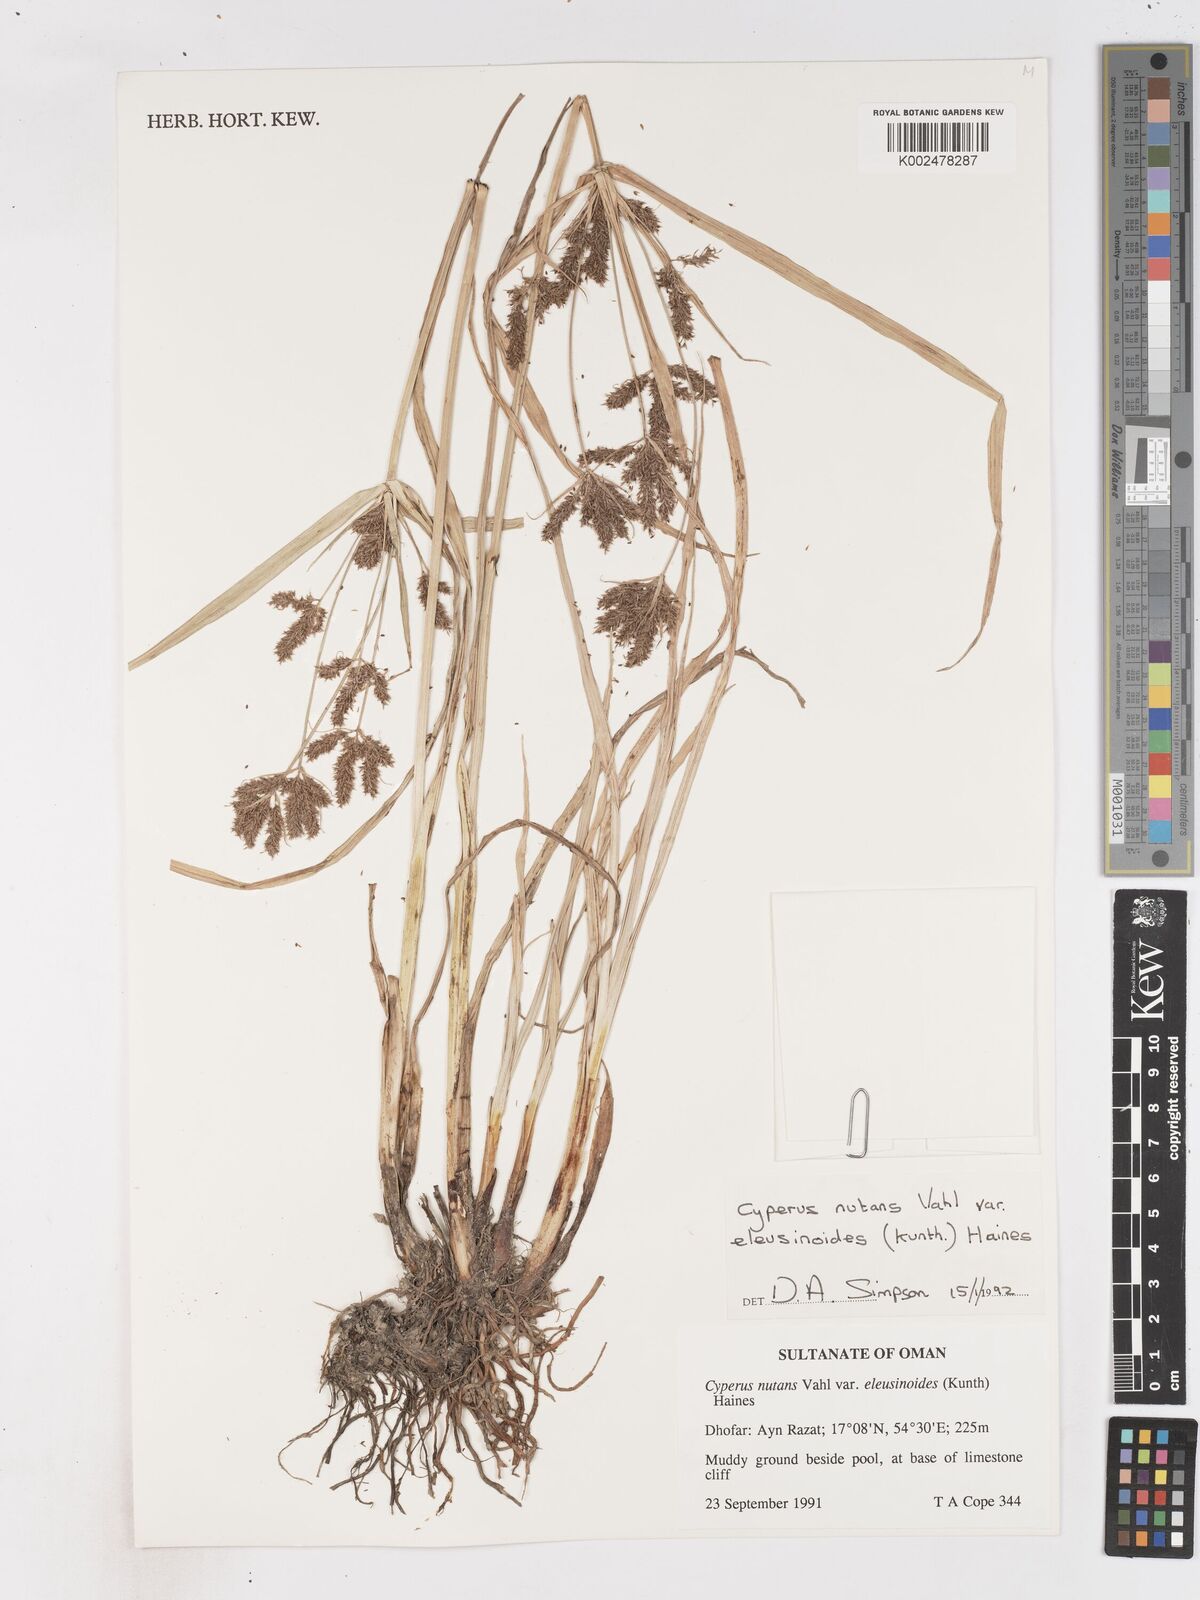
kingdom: Plantae
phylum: Tracheophyta
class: Liliopsida
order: Poales
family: Cyperaceae
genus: Cyperus
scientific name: Cyperus nutans
